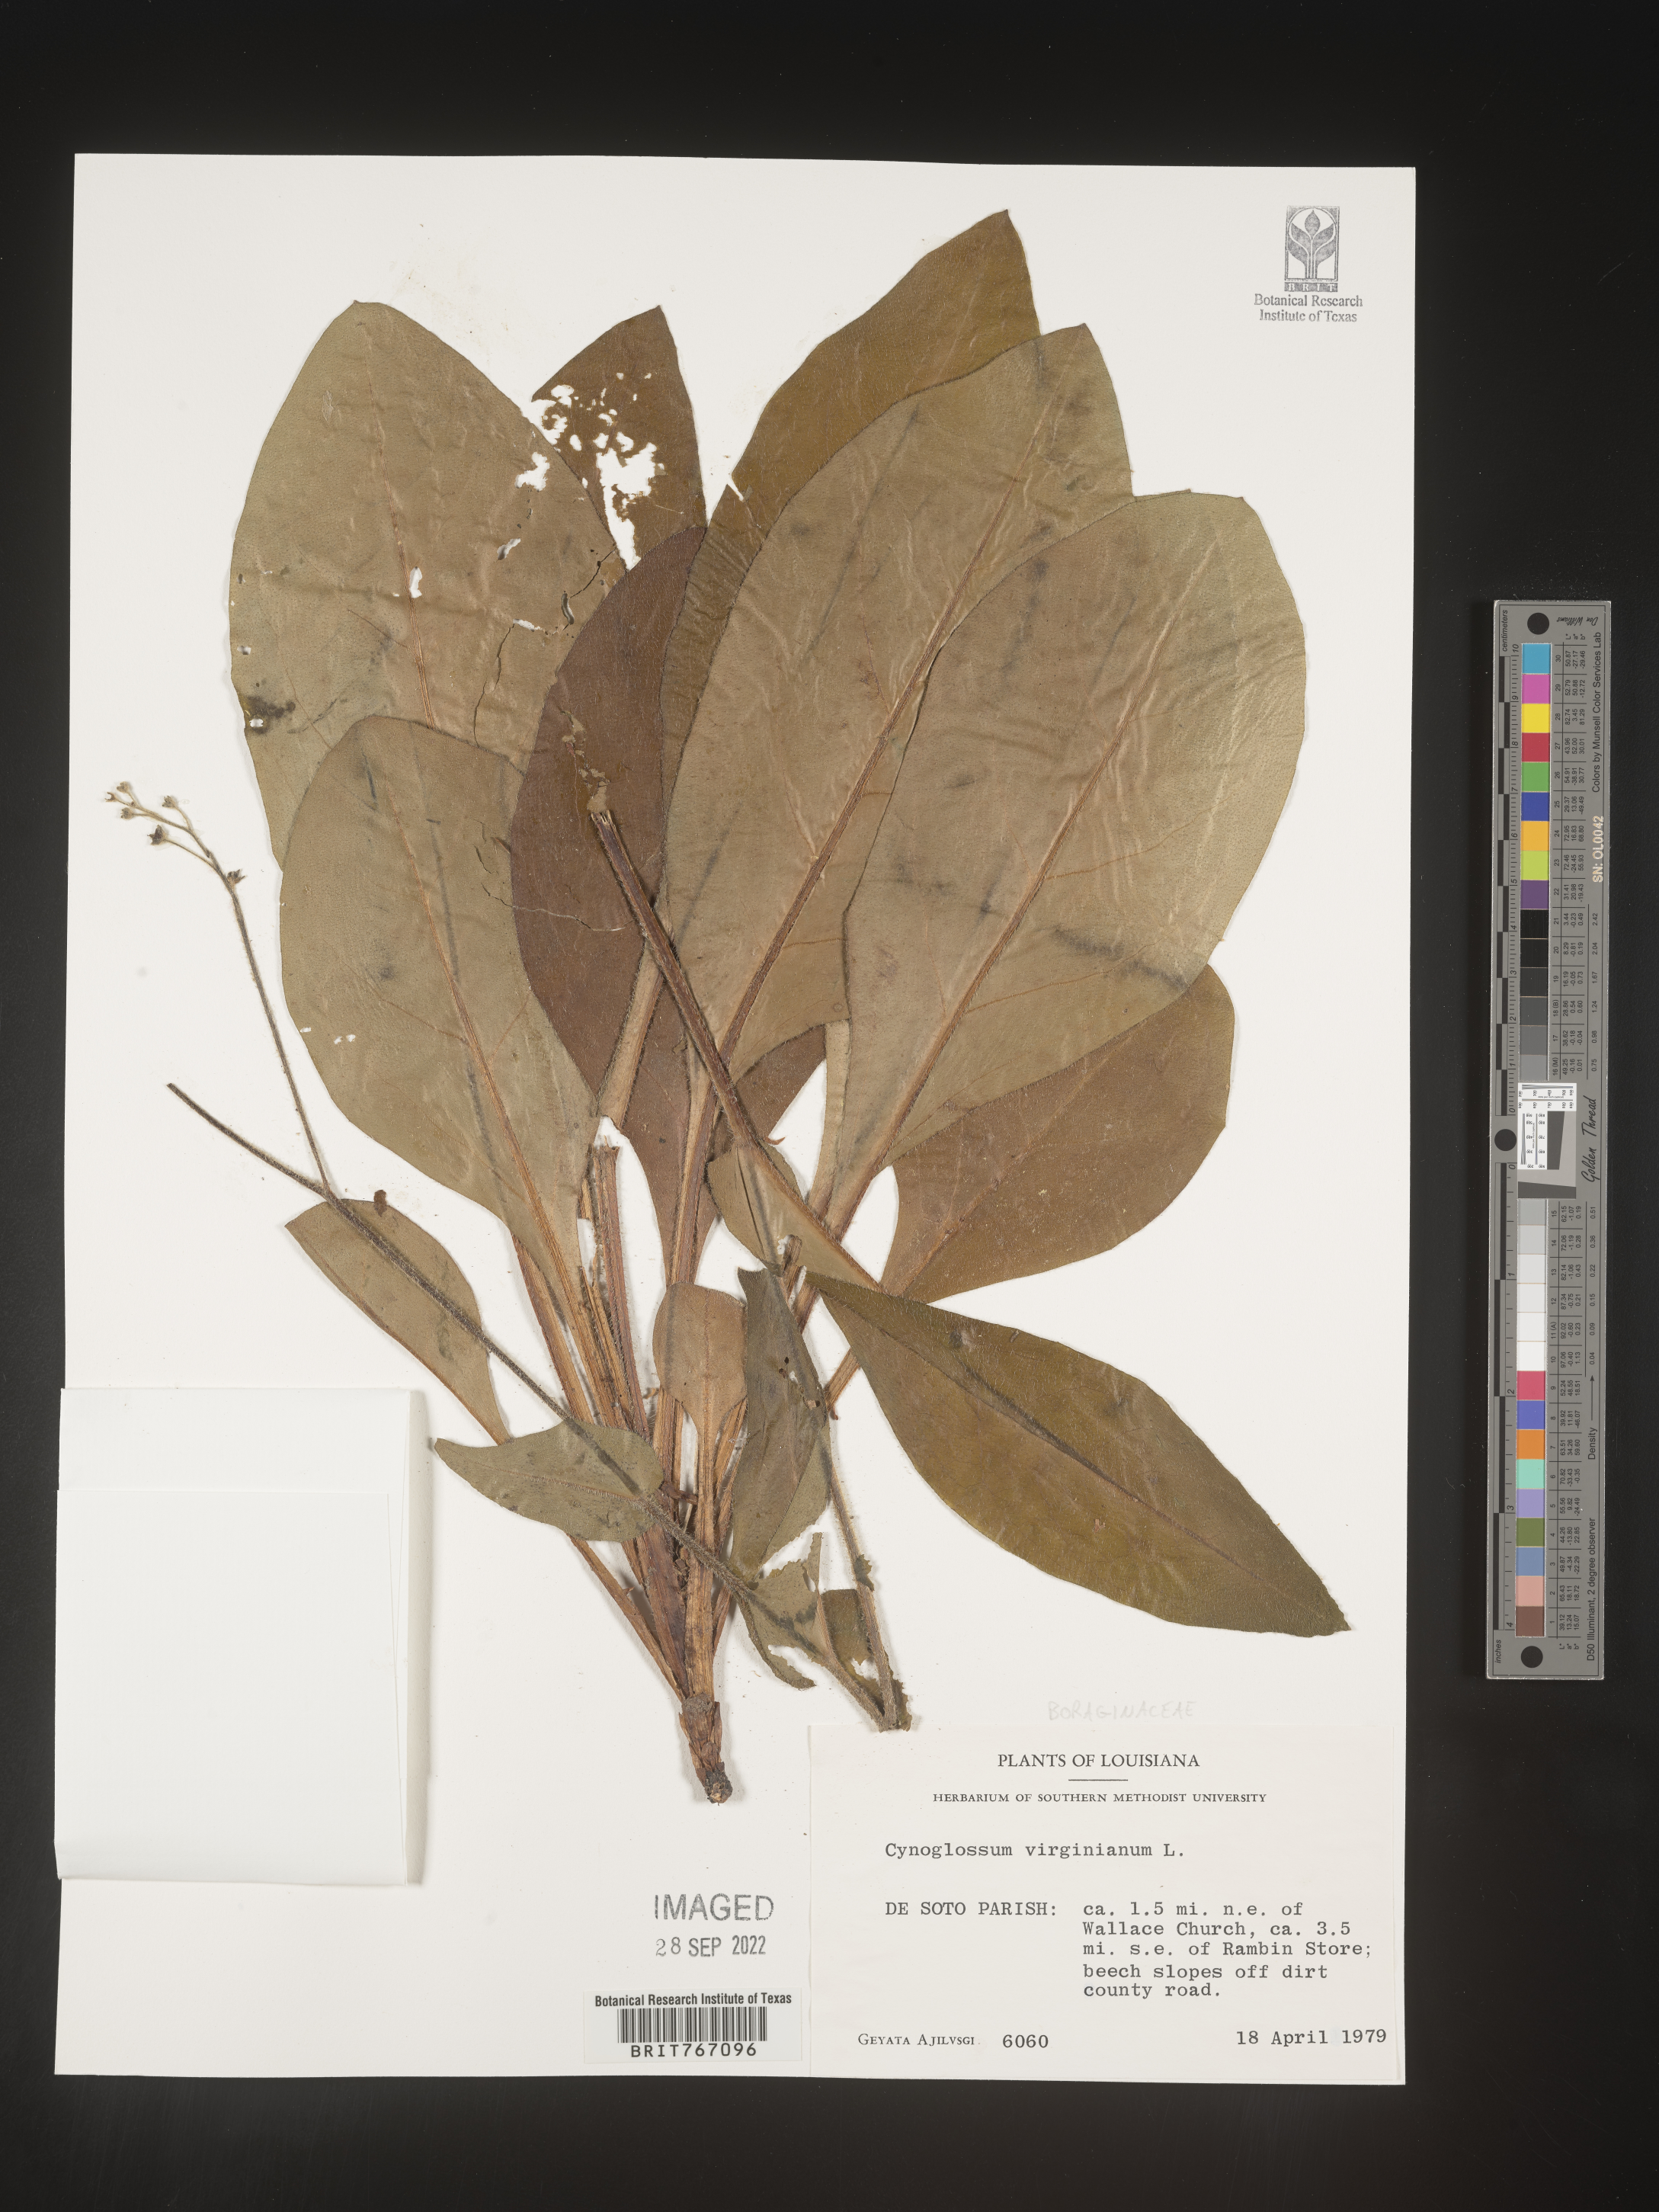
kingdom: Plantae
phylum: Tracheophyta
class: Magnoliopsida
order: Boraginales
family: Boraginaceae
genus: Andersonglossum
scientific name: Andersonglossum virginianum
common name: Wild comfrey
